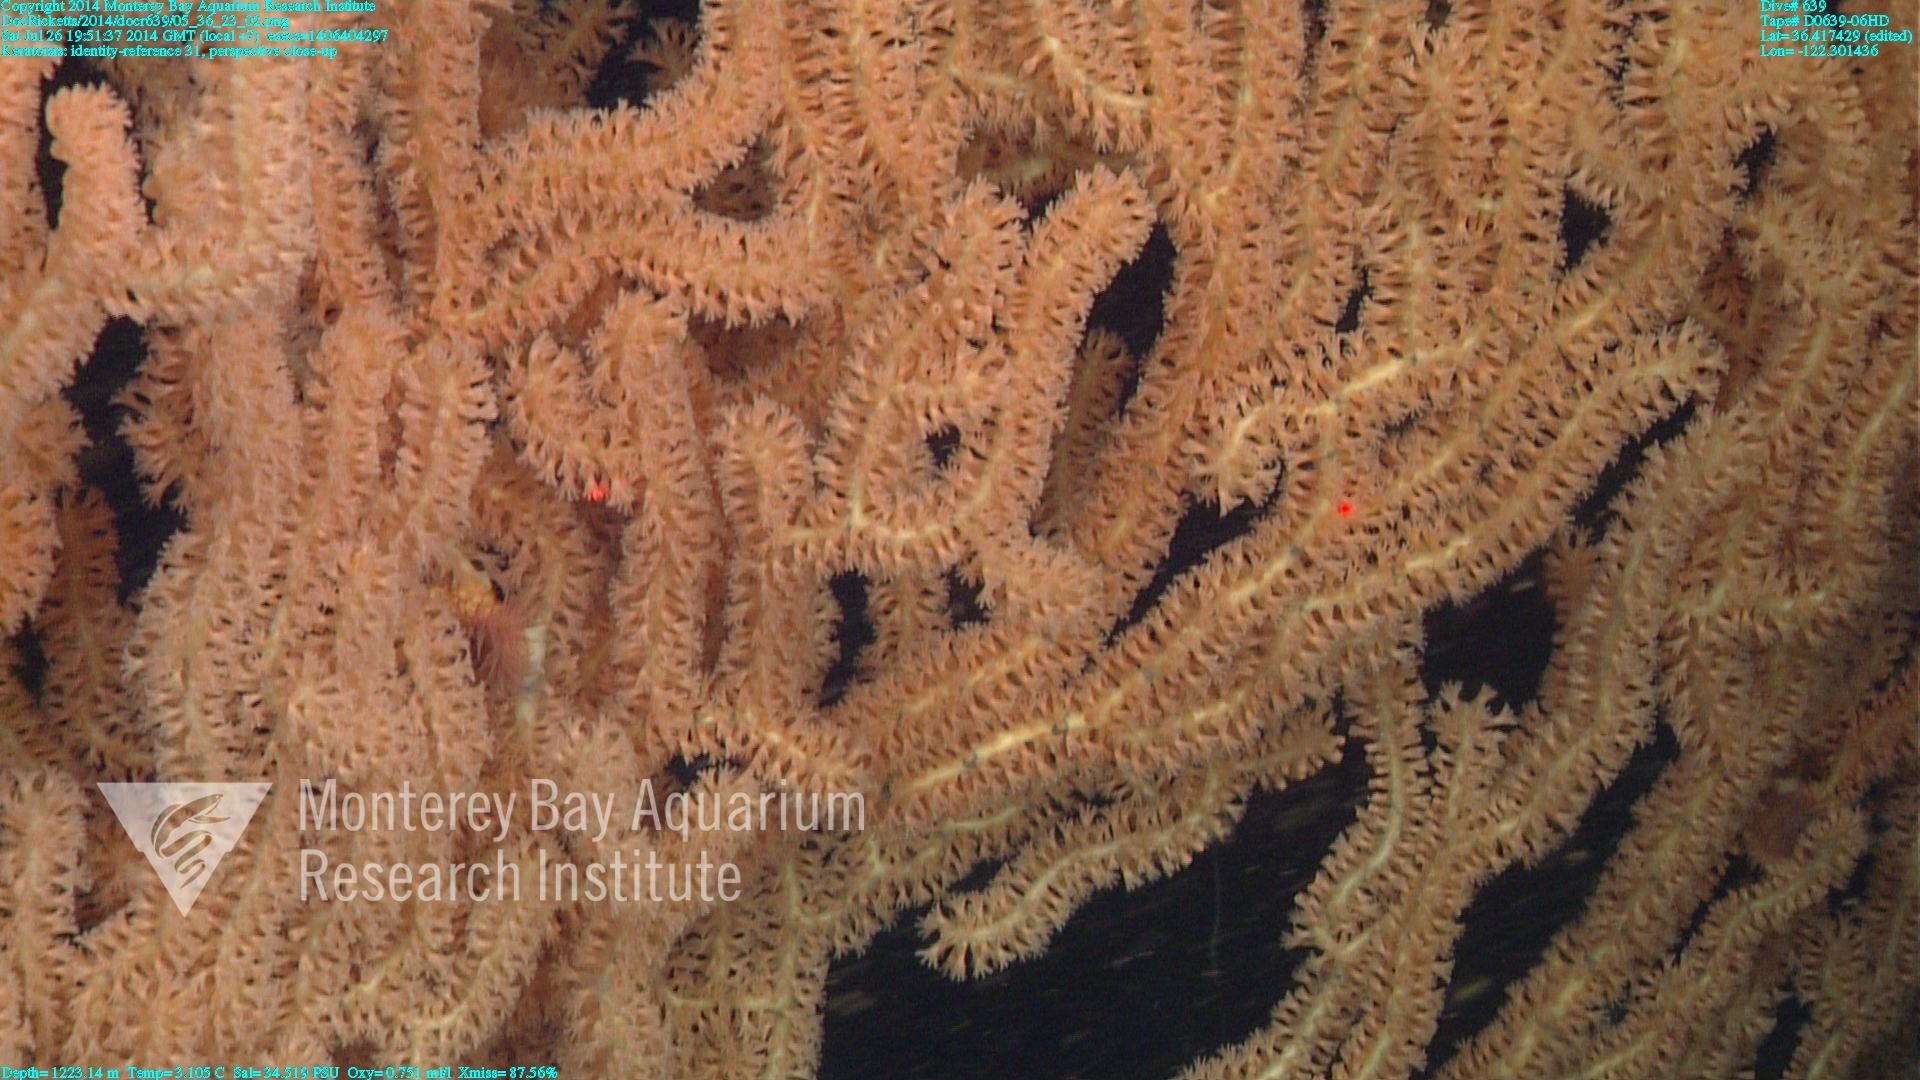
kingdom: Animalia
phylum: Cnidaria
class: Anthozoa
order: Scleralcyonacea
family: Keratoisididae
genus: Keratoisis
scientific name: Keratoisis
